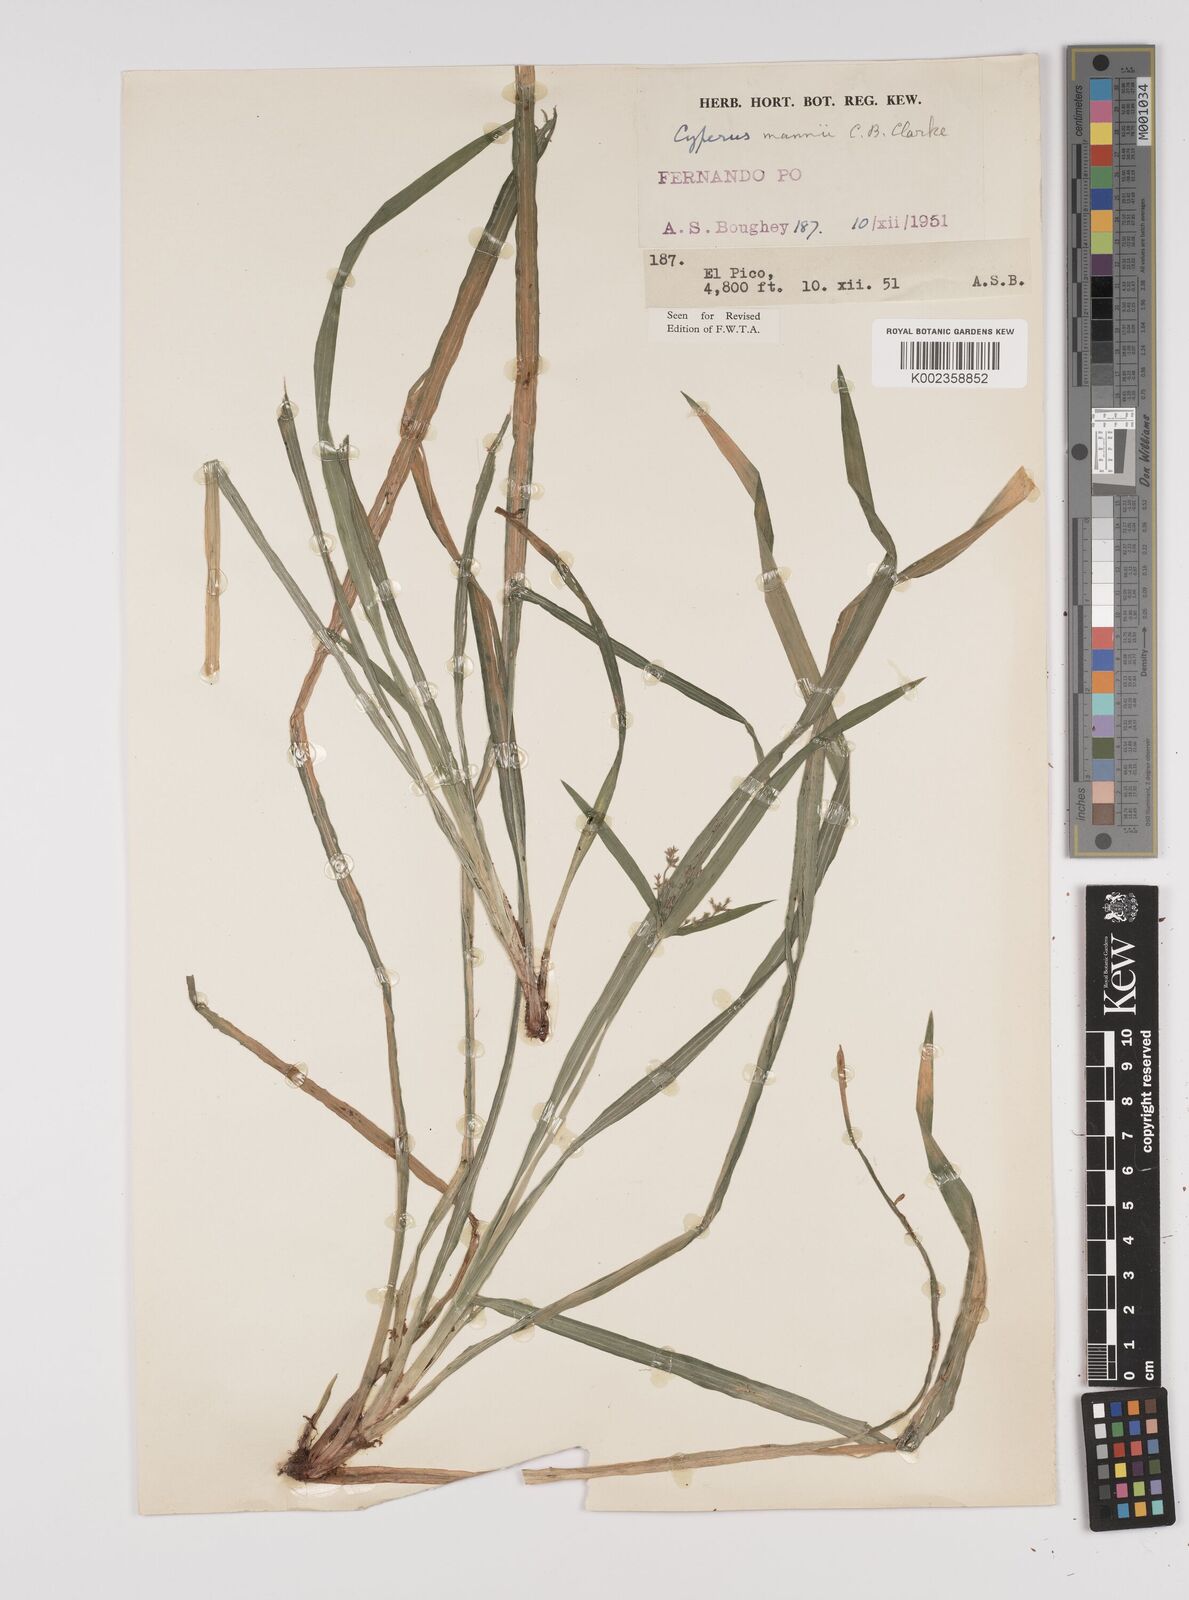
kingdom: Plantae
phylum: Tracheophyta
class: Liliopsida
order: Poales
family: Cyperaceae
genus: Cyperus
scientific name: Cyperus baronii
